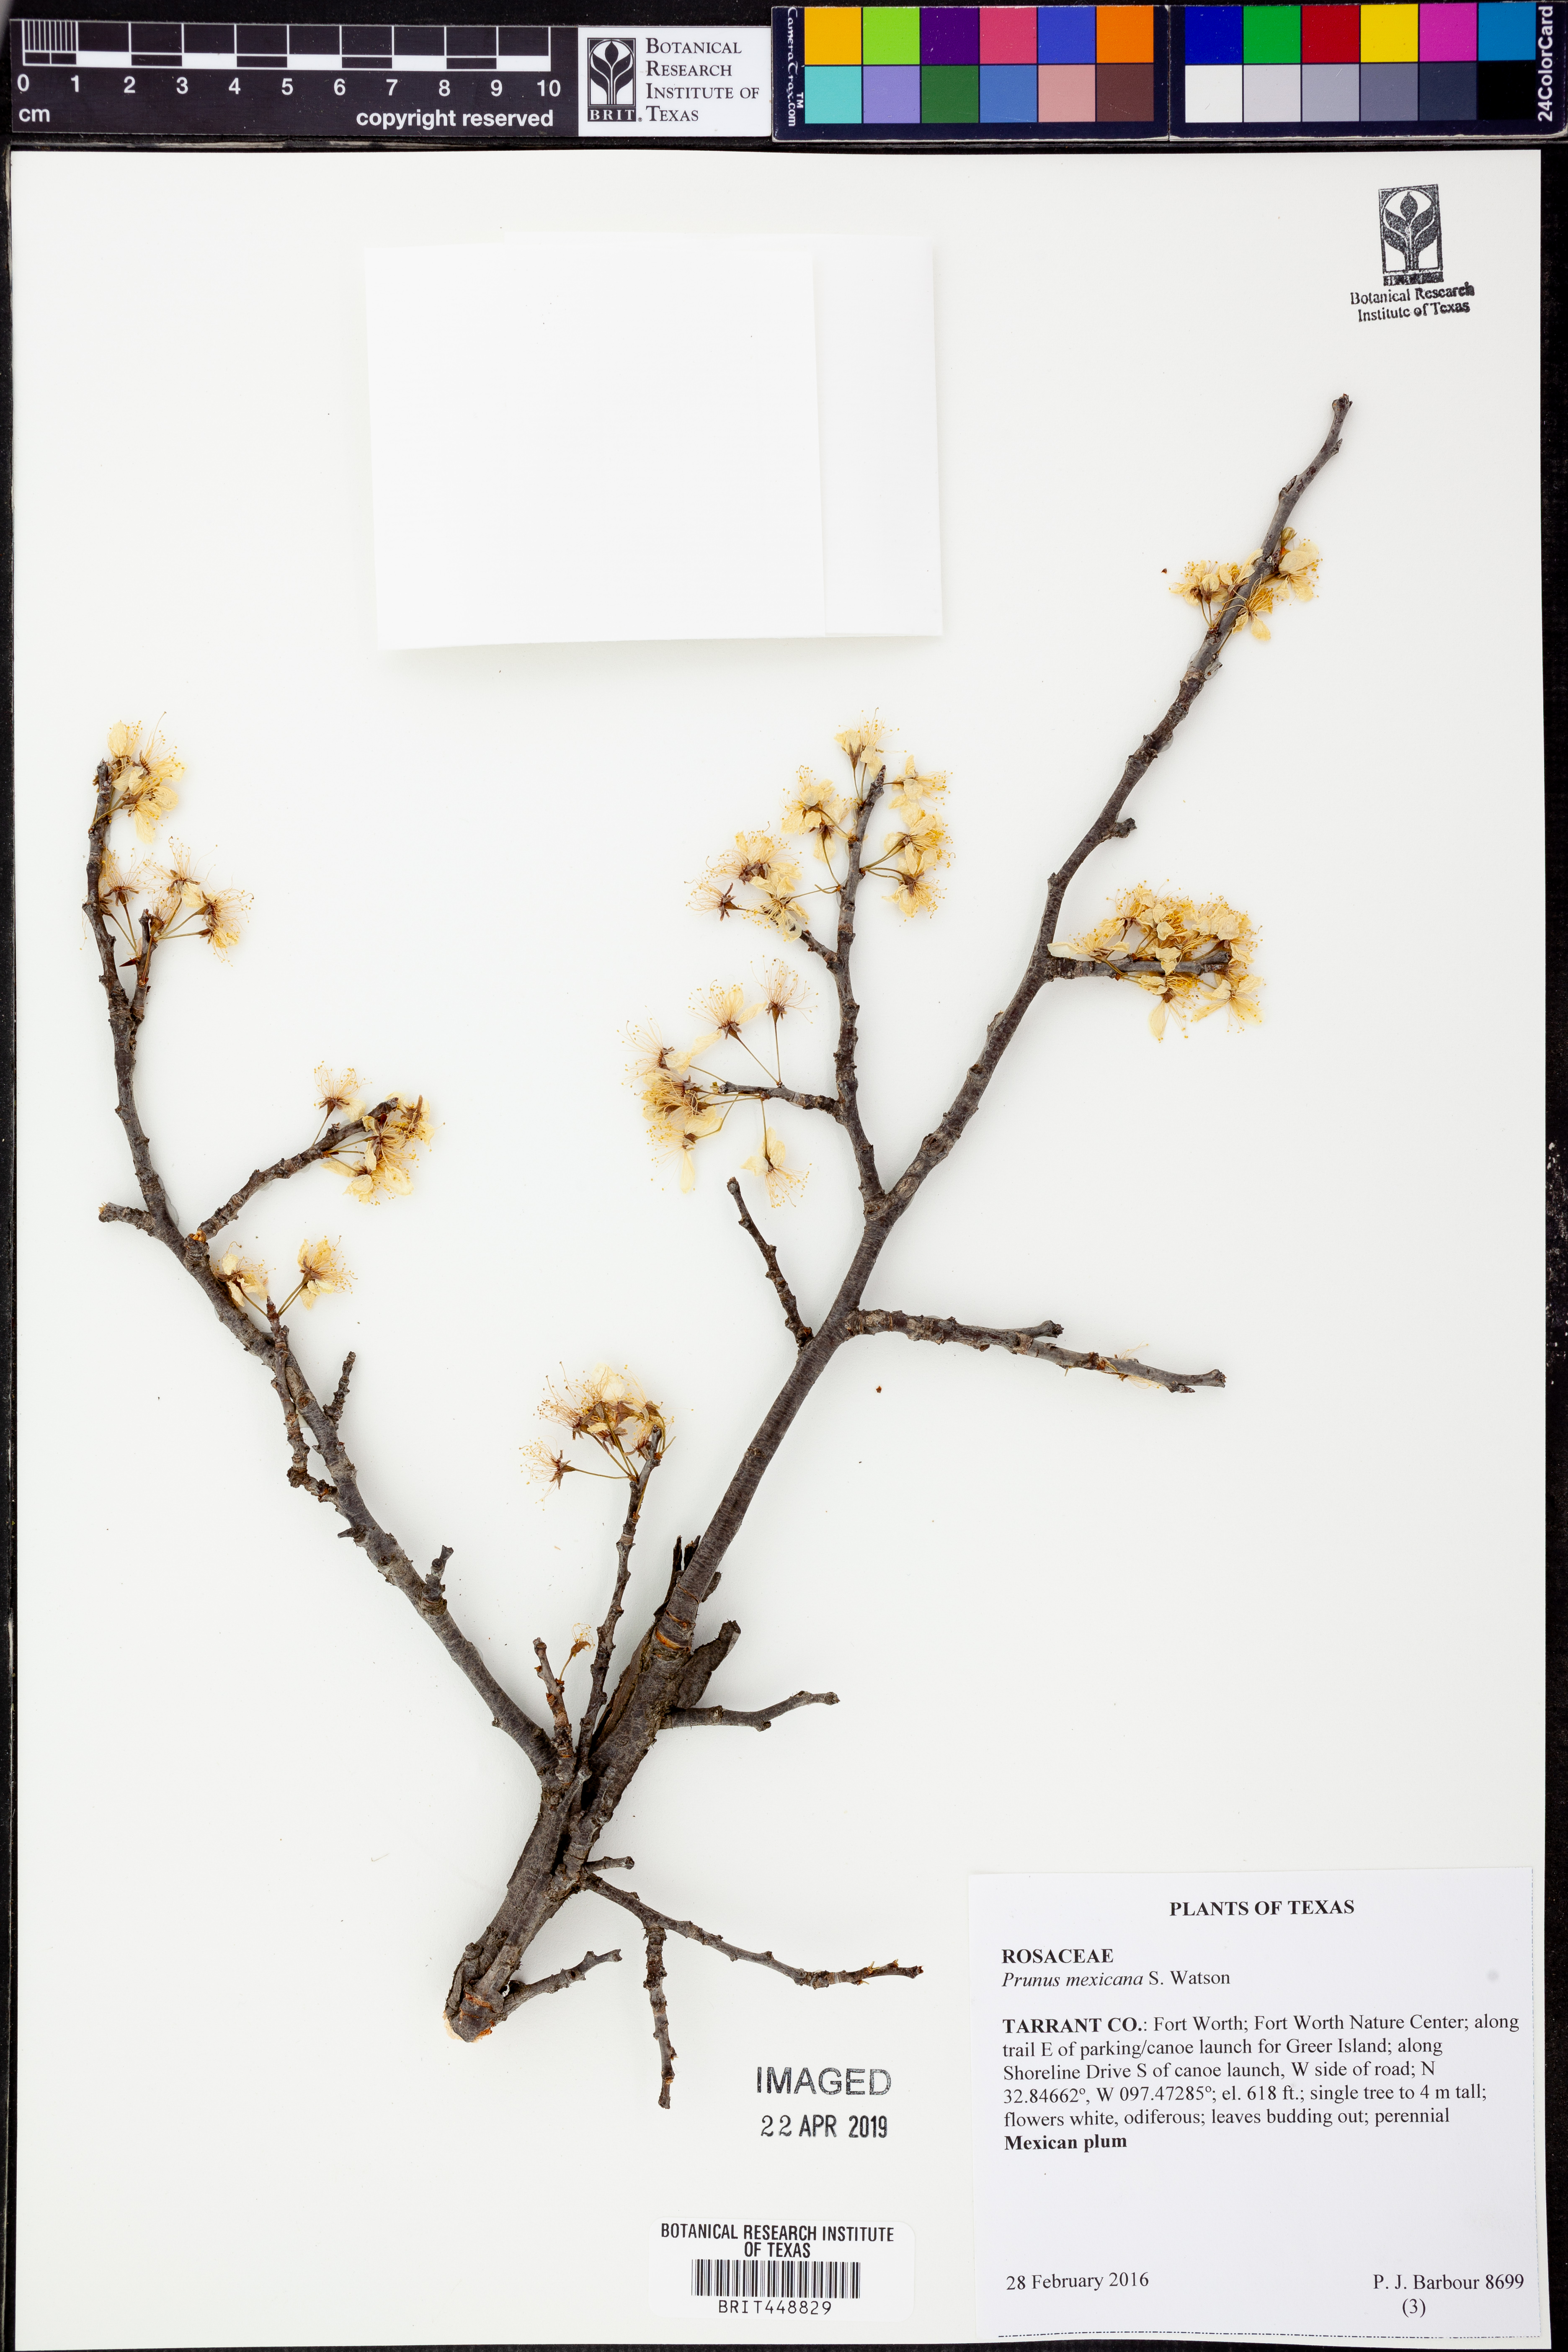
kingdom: Plantae
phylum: Tracheophyta
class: Magnoliopsida
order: Rosales
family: Rosaceae
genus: Prunus
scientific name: Prunus mexicana
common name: Mexican plum
